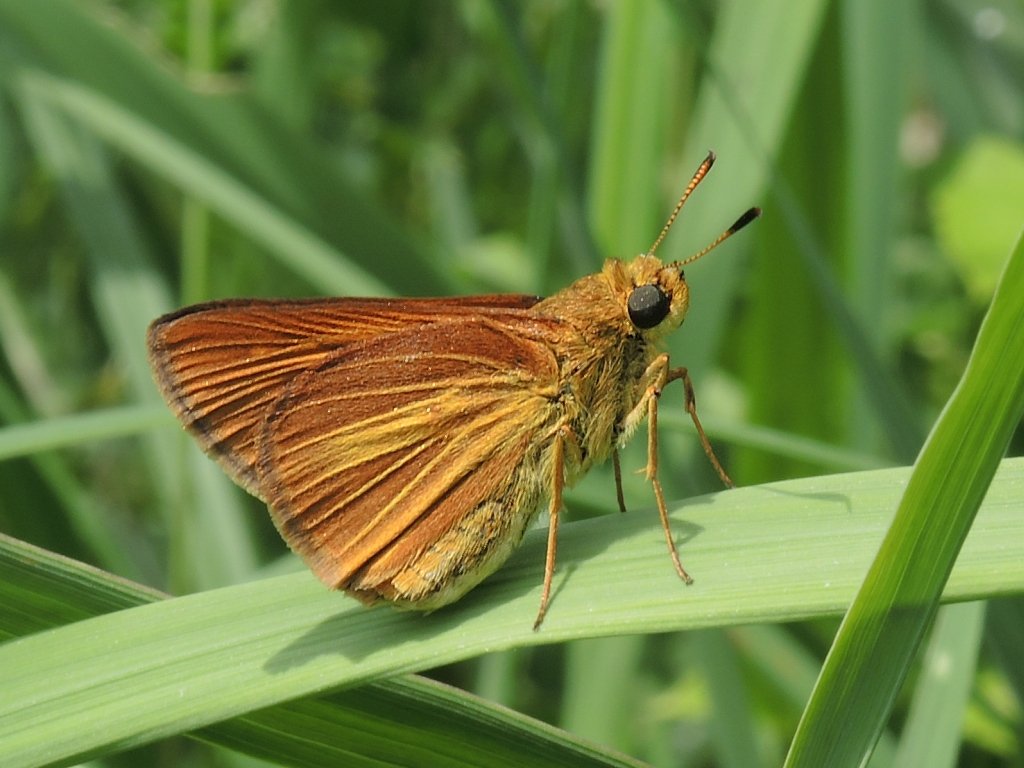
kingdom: Animalia
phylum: Arthropoda
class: Insecta
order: Lepidoptera
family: Hesperiidae
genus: Euphyes
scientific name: Euphyes dion
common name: Dion Skipper
